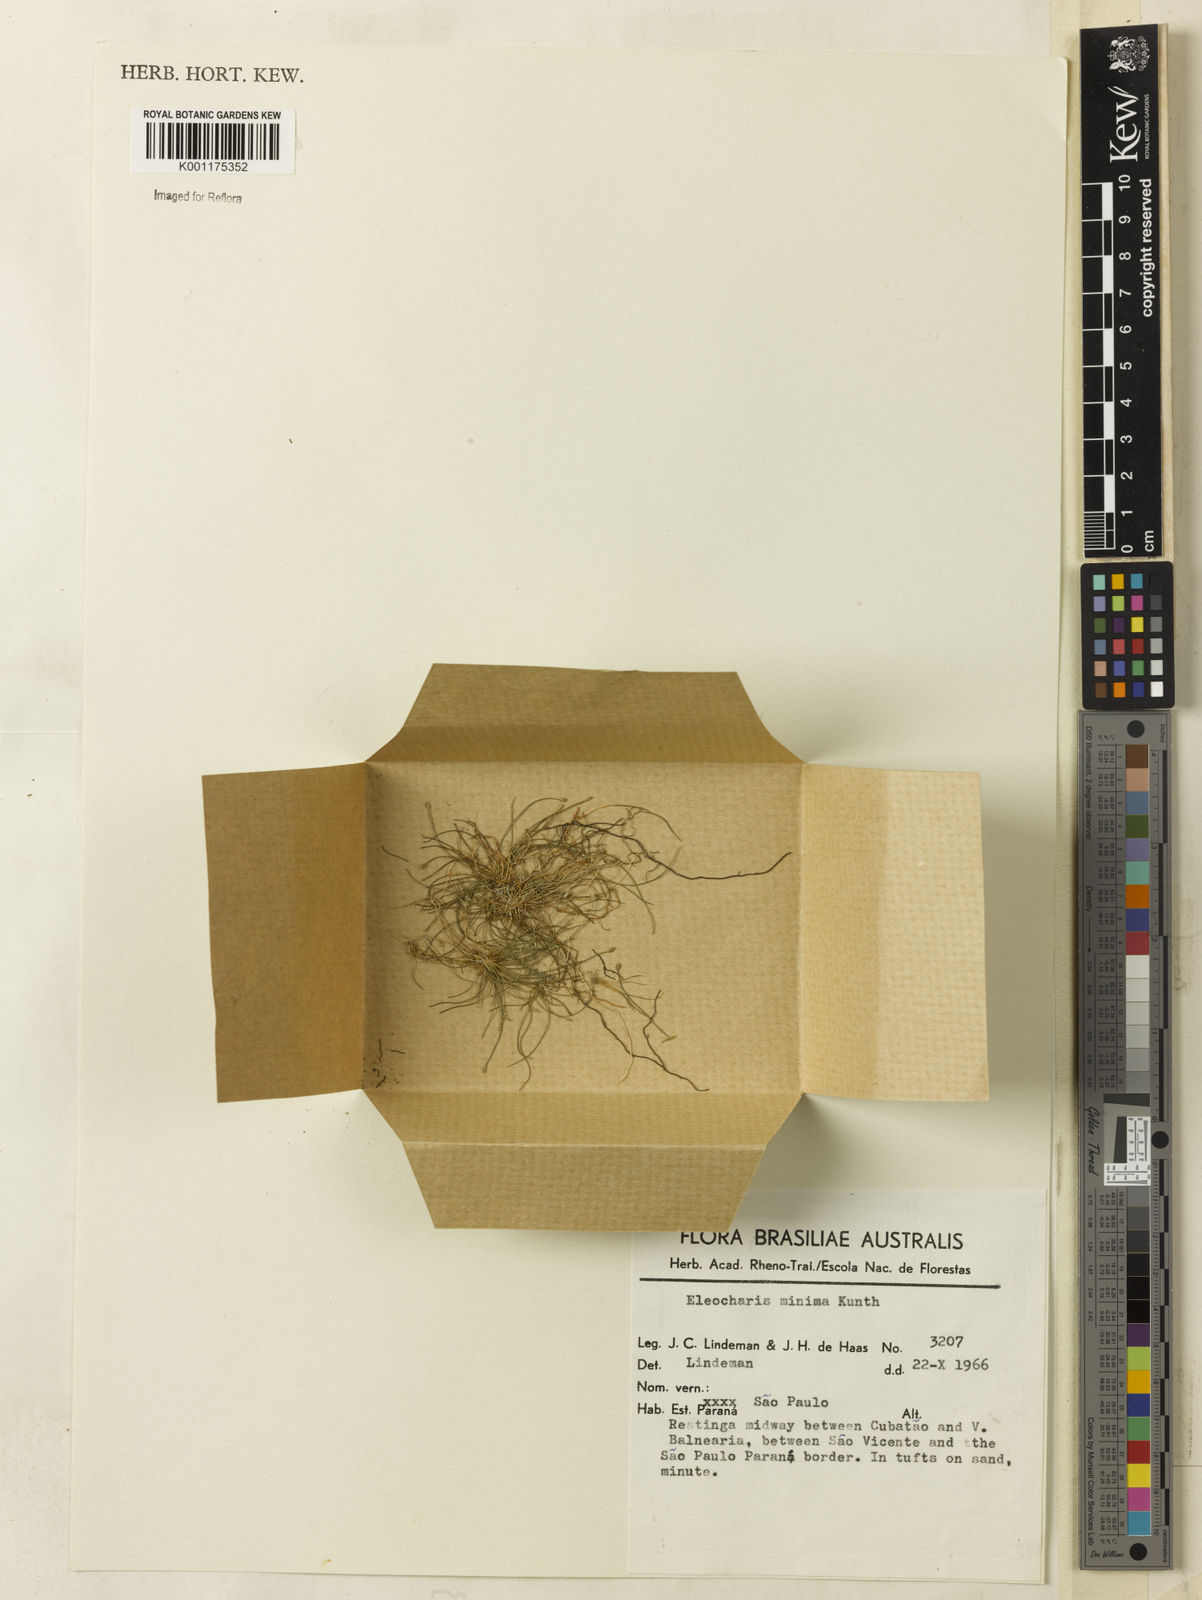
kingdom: Plantae
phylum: Tracheophyta
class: Liliopsida
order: Poales
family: Cyperaceae
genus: Eleocharis
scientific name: Eleocharis minima
